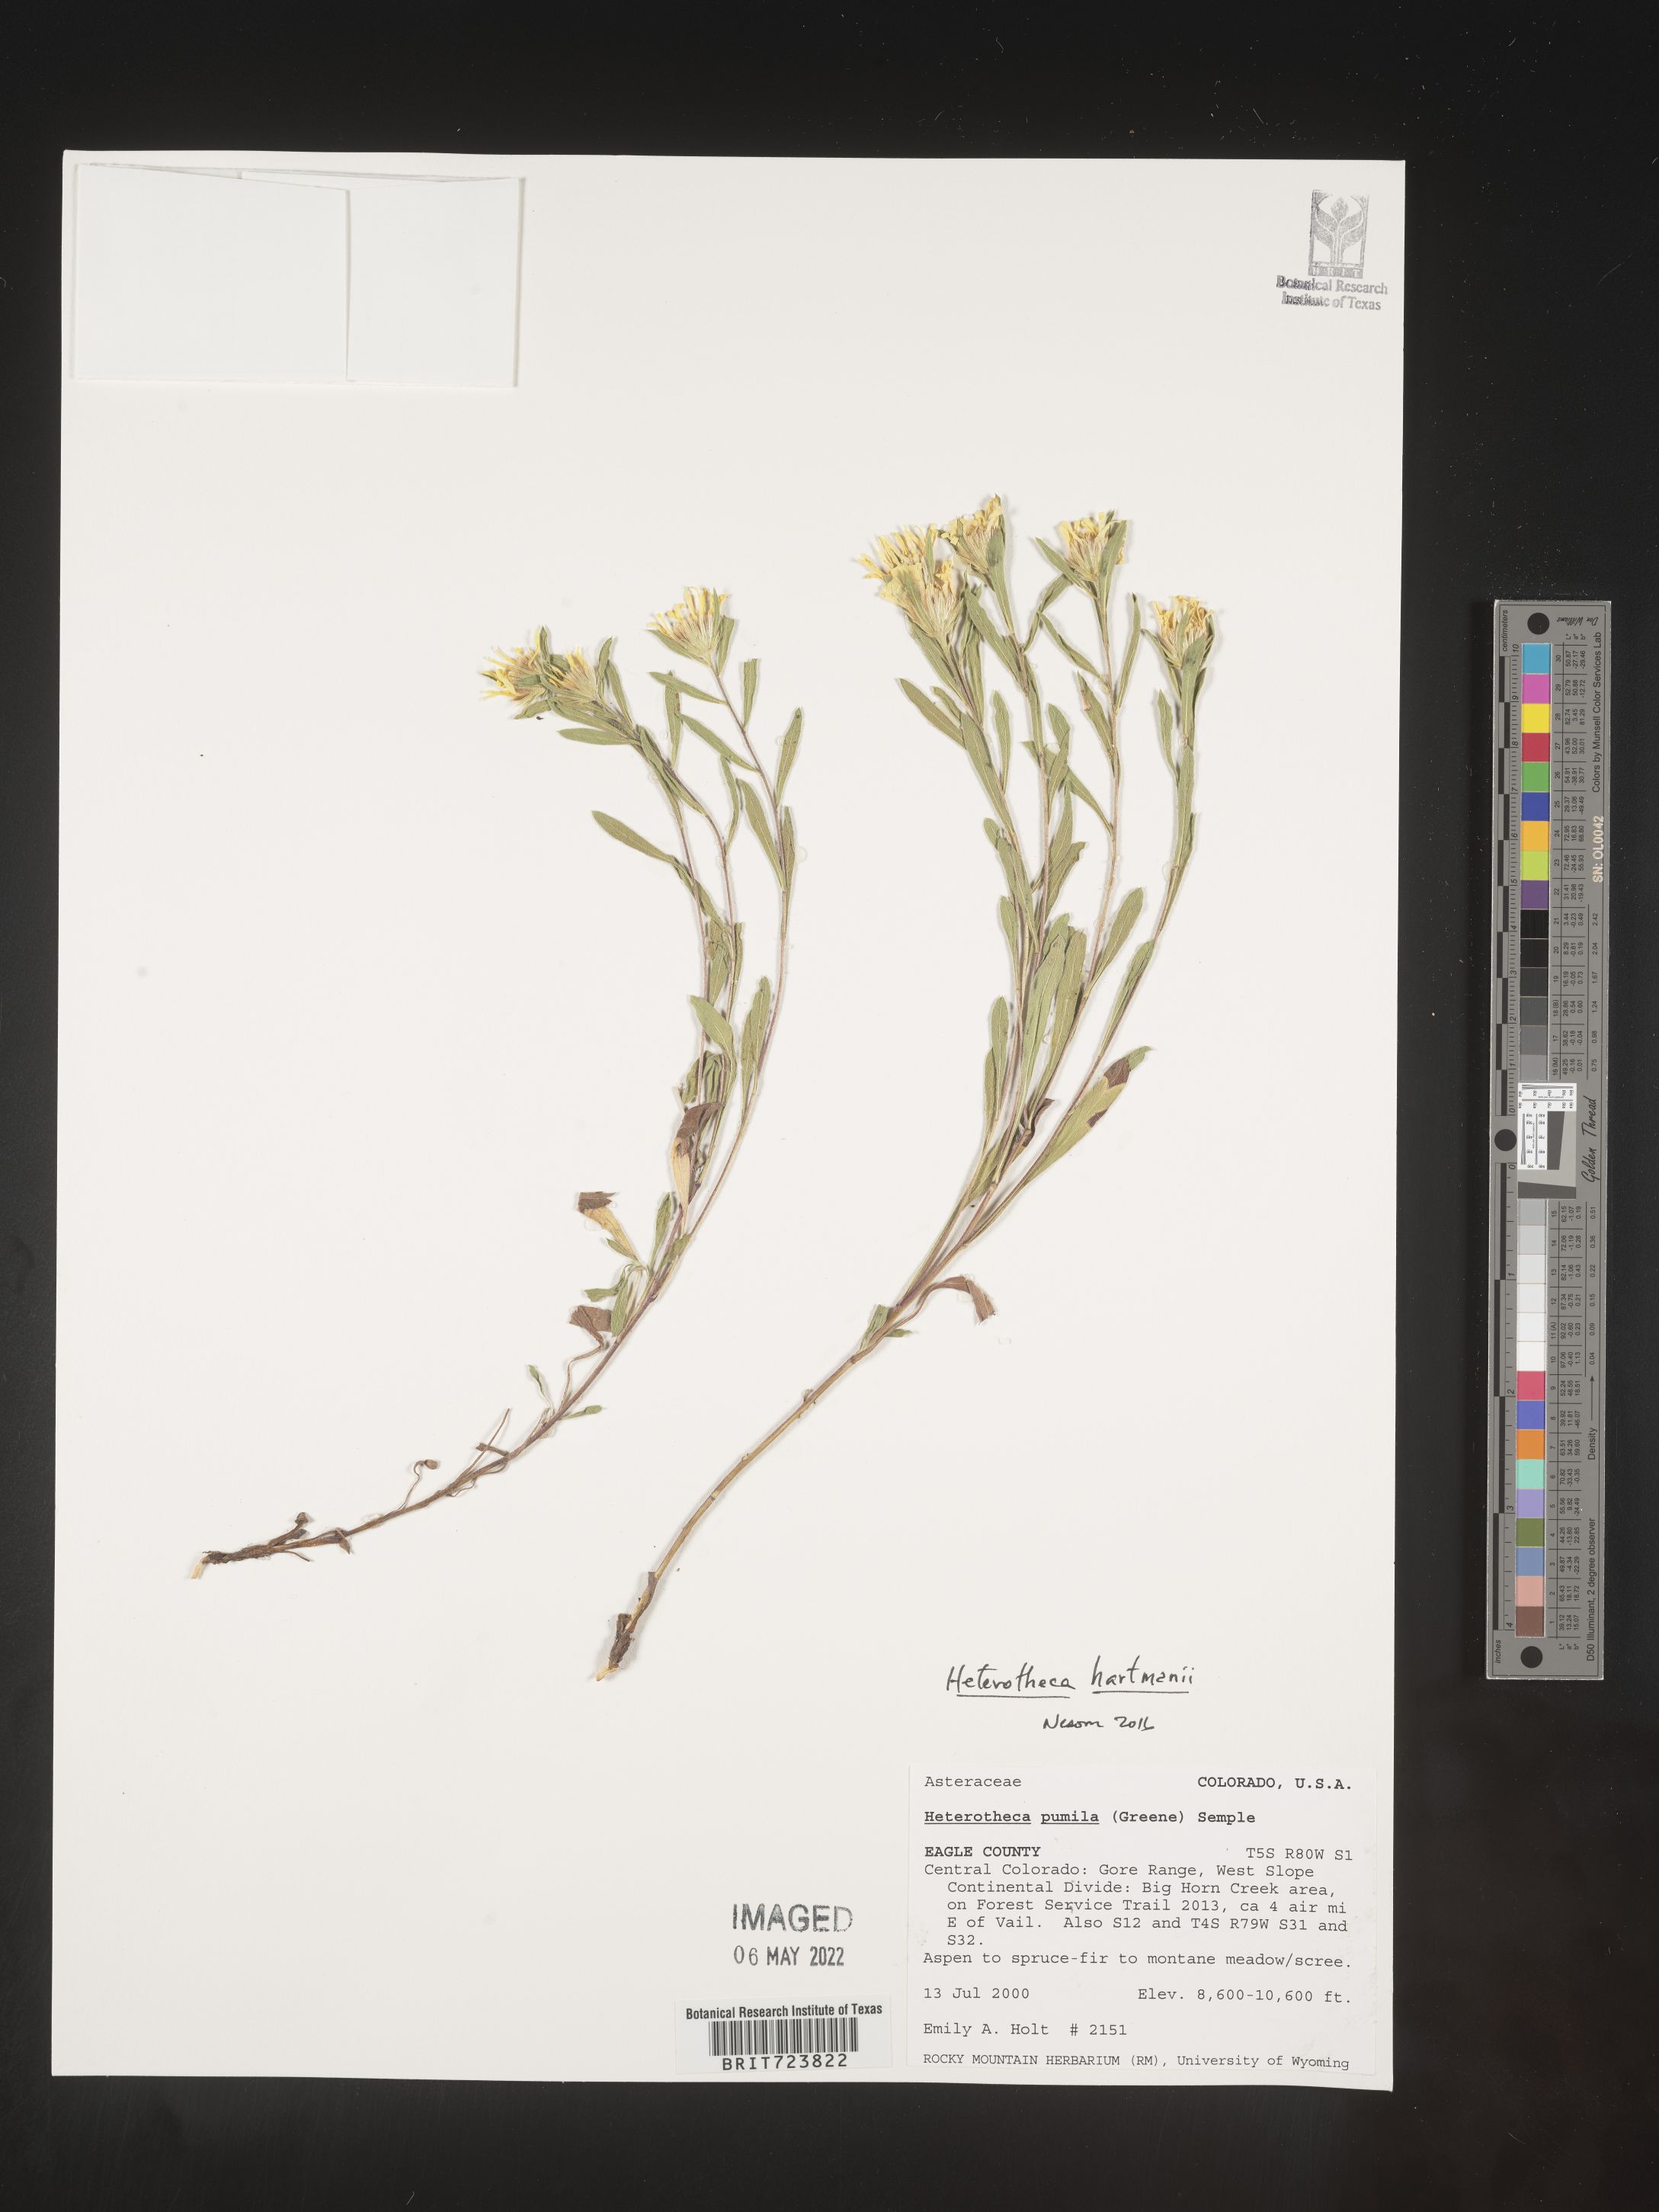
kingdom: Plantae
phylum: Tracheophyta
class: Magnoliopsida
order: Asterales
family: Asteraceae
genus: Heterotheca
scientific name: Heterotheca hartmanii
